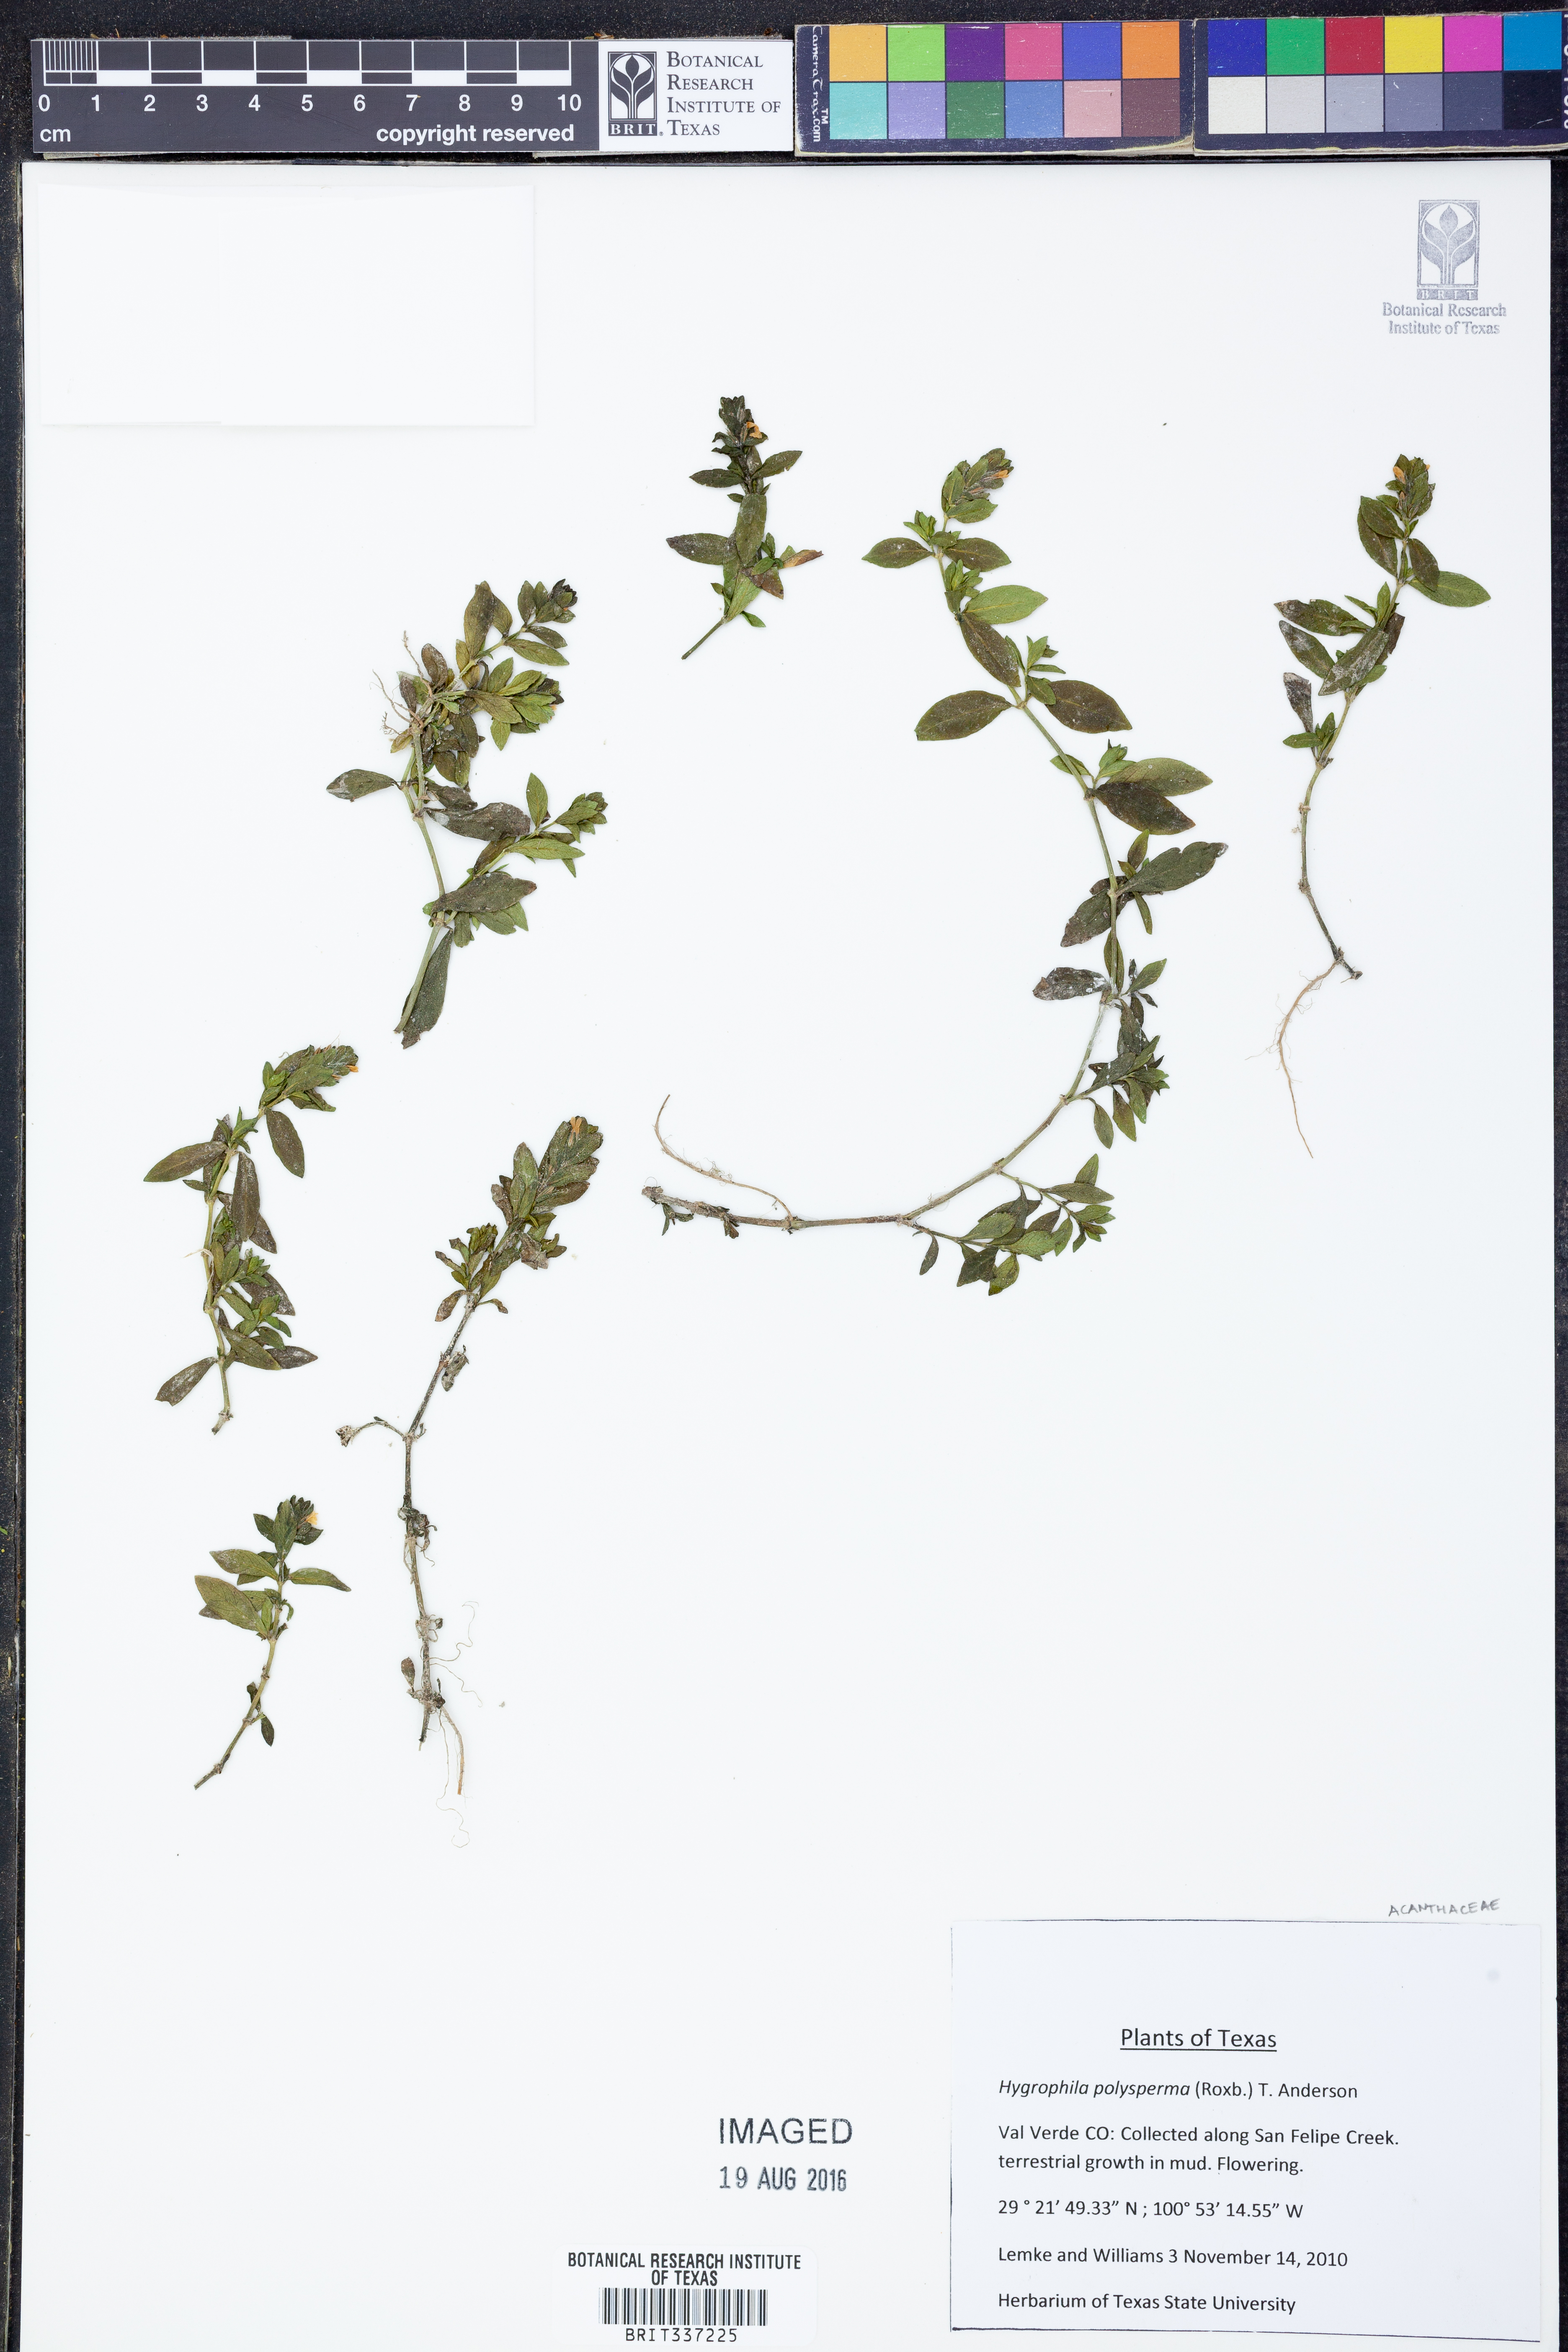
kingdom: Plantae
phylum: Tracheophyta
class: Magnoliopsida
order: Lamiales
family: Acanthaceae
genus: Hygrophila
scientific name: Hygrophila polysperma
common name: Indian swampweed
